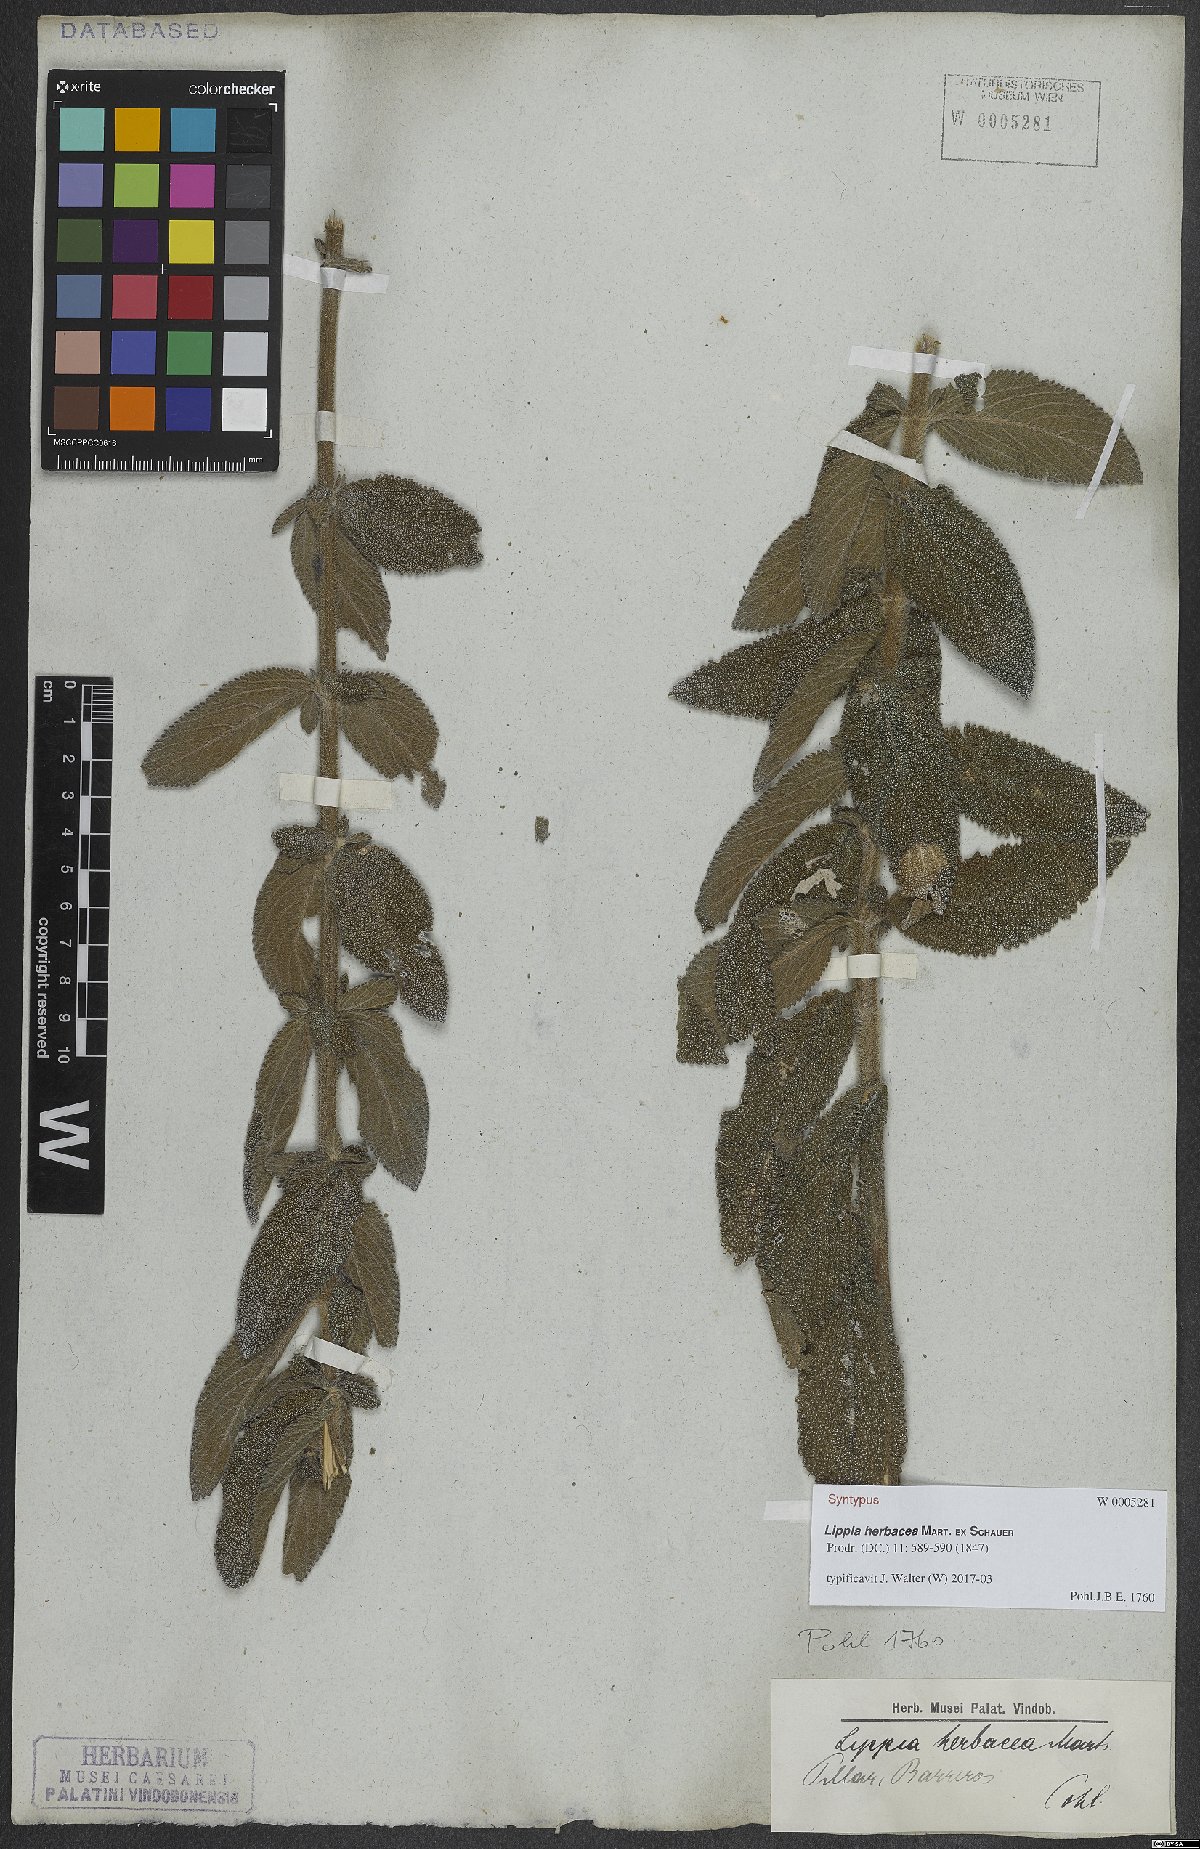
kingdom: Plantae
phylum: Tracheophyta
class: Magnoliopsida
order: Lamiales
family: Verbenaceae
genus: Lippia
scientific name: Lippia herbacea
